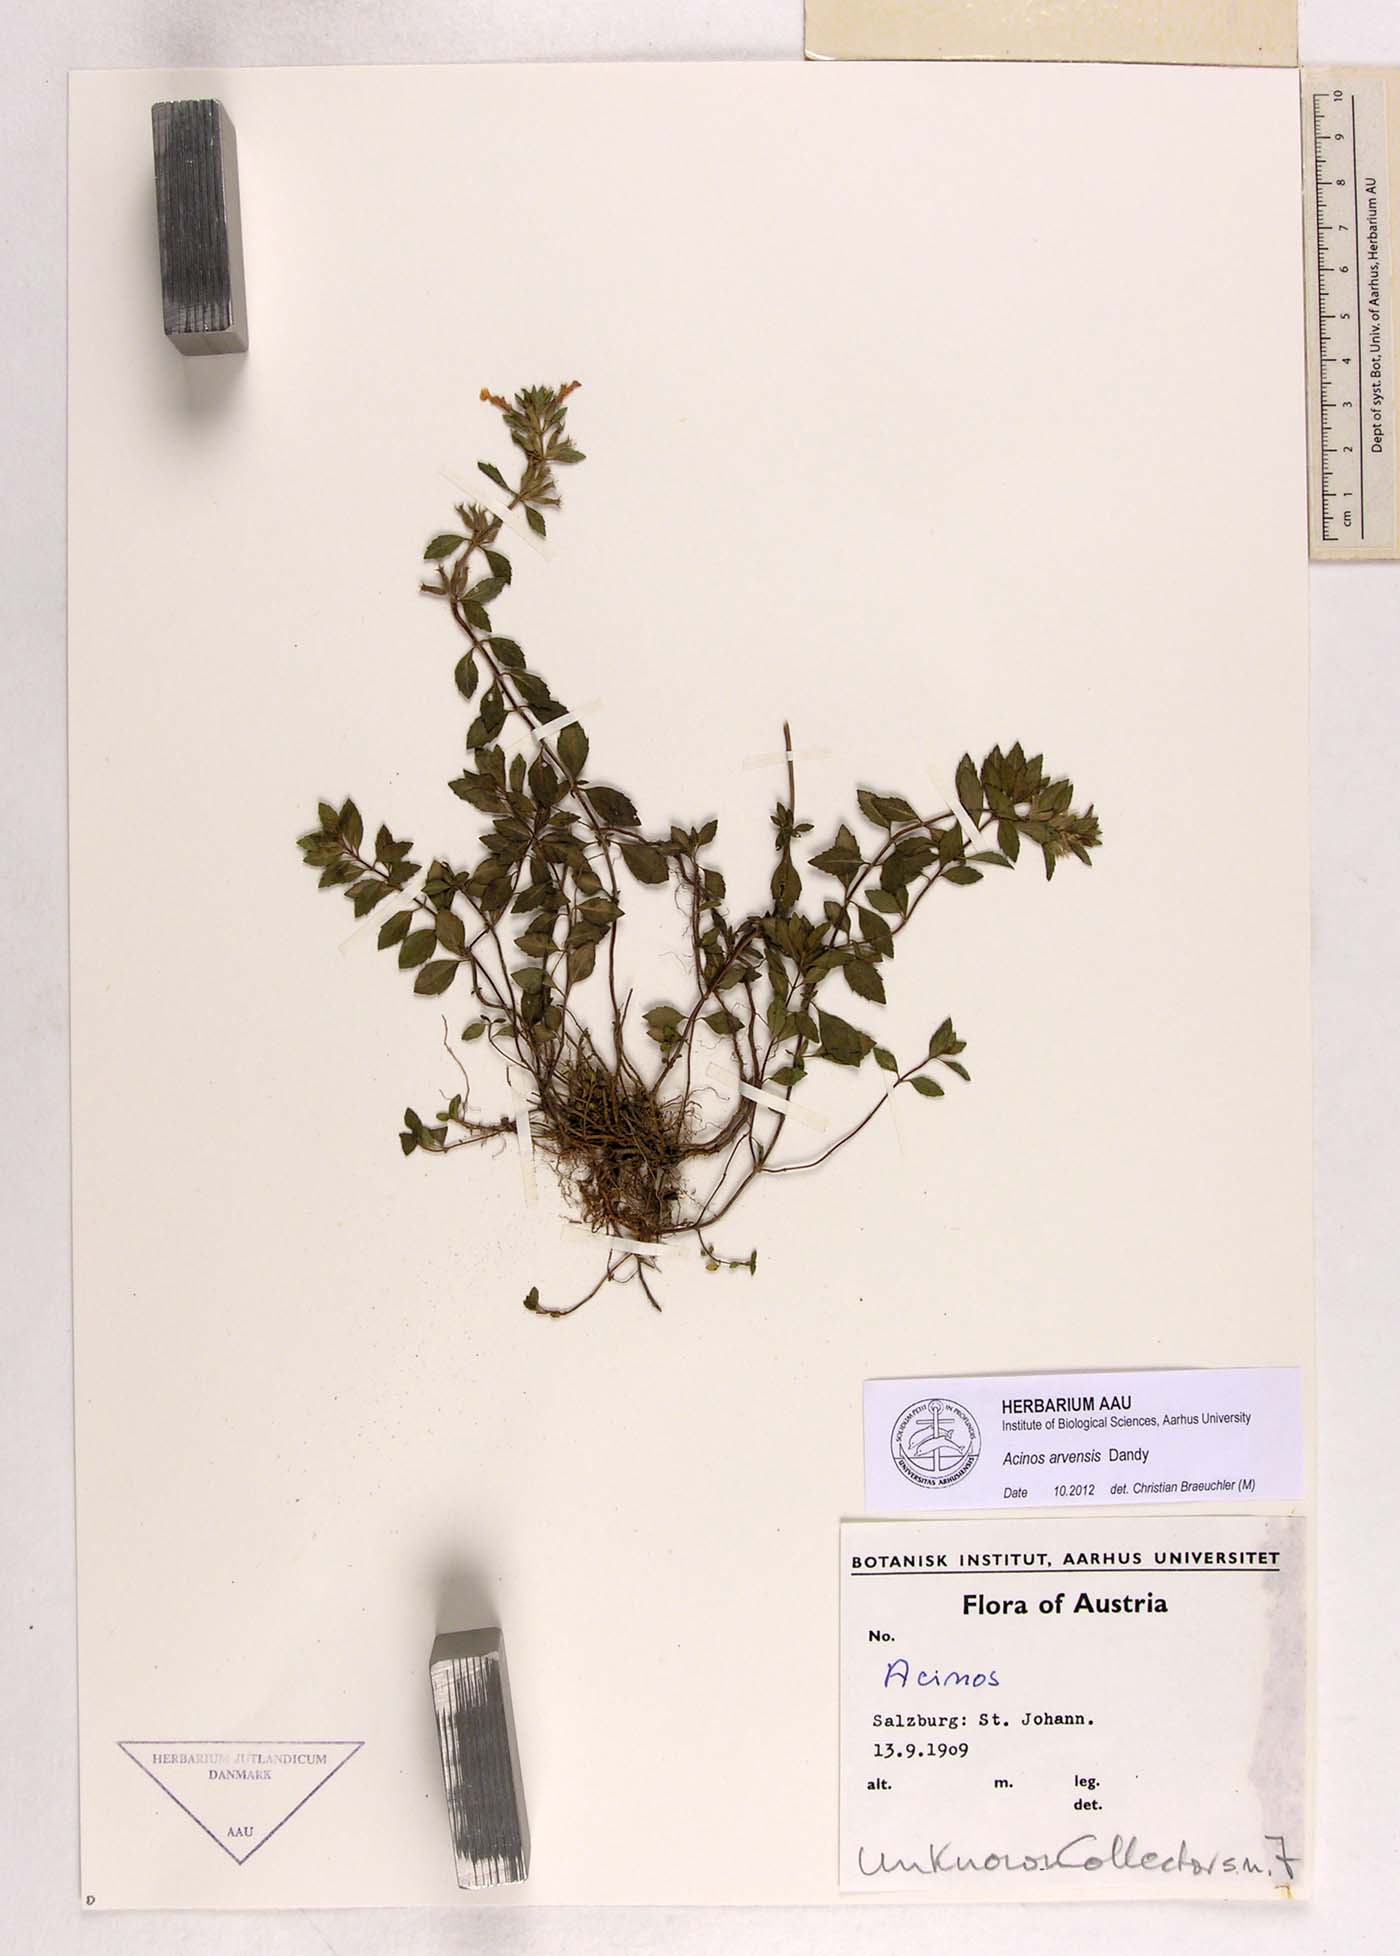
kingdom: Plantae
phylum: Tracheophyta
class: Magnoliopsida
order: Lamiales
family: Lamiaceae
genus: Clinopodium
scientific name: Clinopodium acinos
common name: Basil thyme
